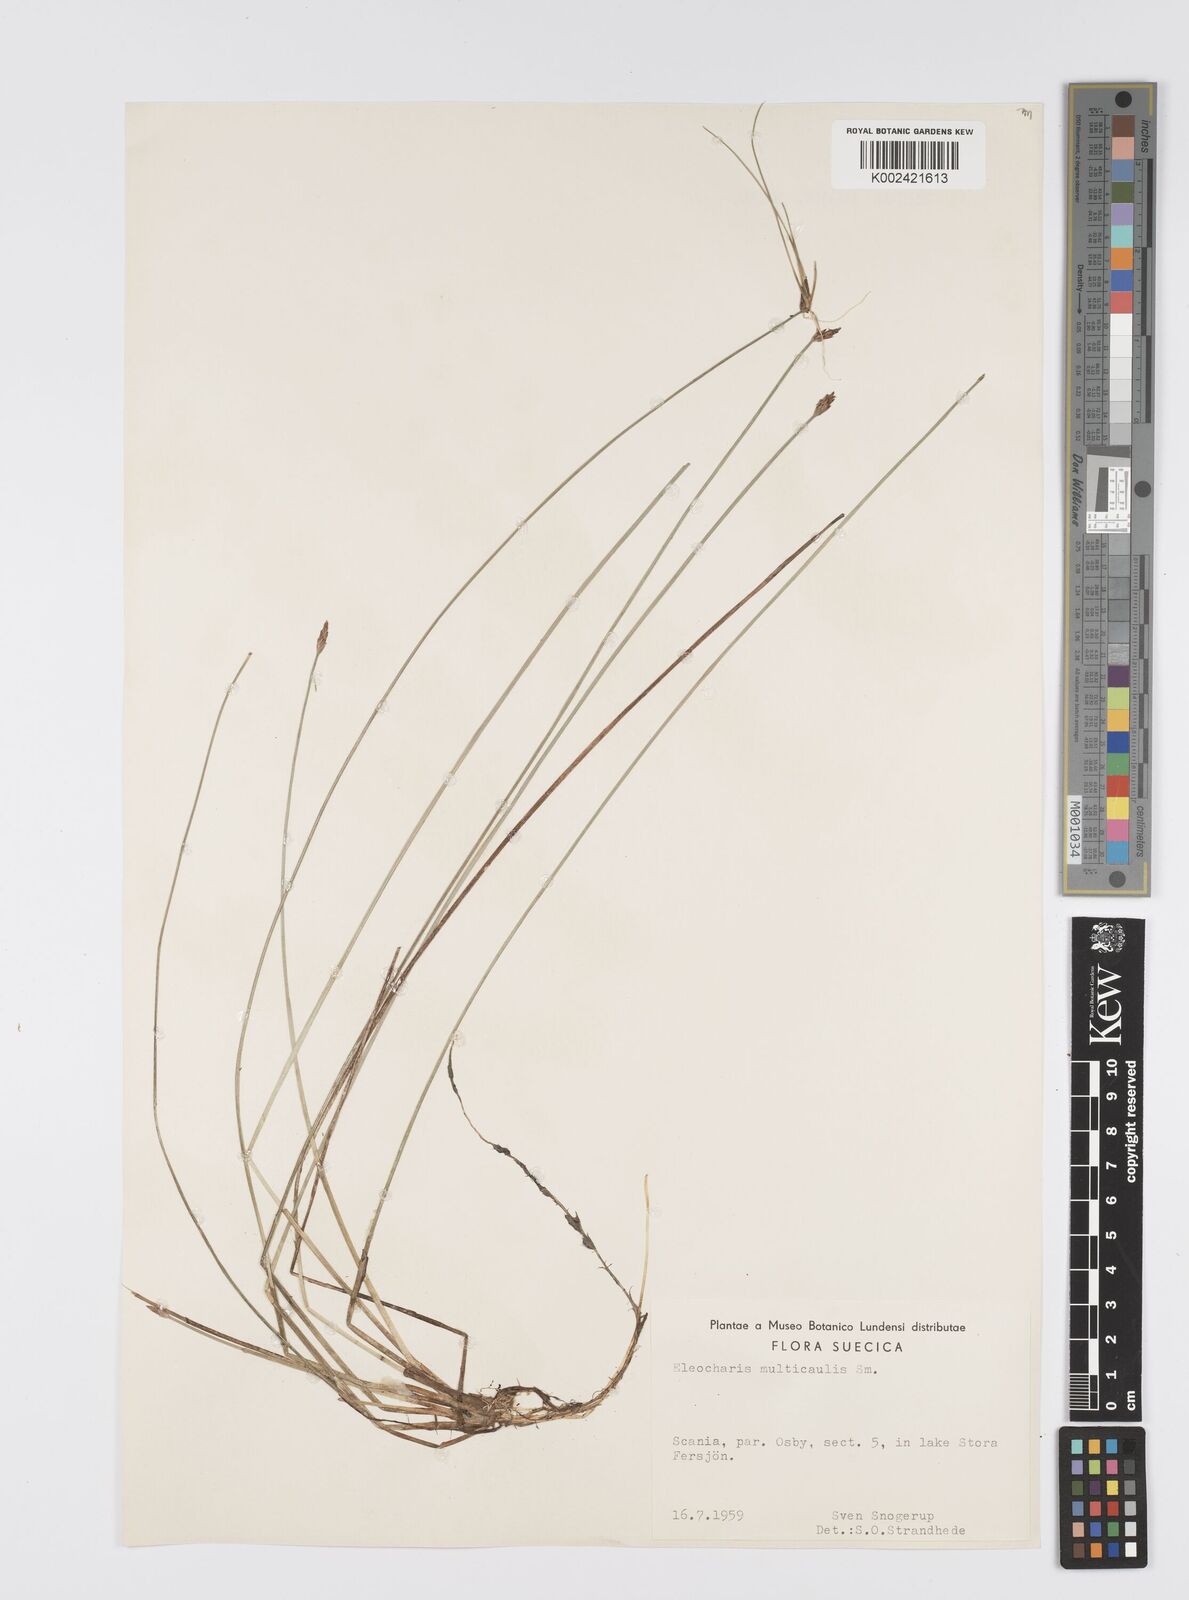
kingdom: Plantae
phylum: Tracheophyta
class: Liliopsida
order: Poales
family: Cyperaceae
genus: Eleocharis
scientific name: Eleocharis multicaulis
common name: Many-stalked spike-rush
